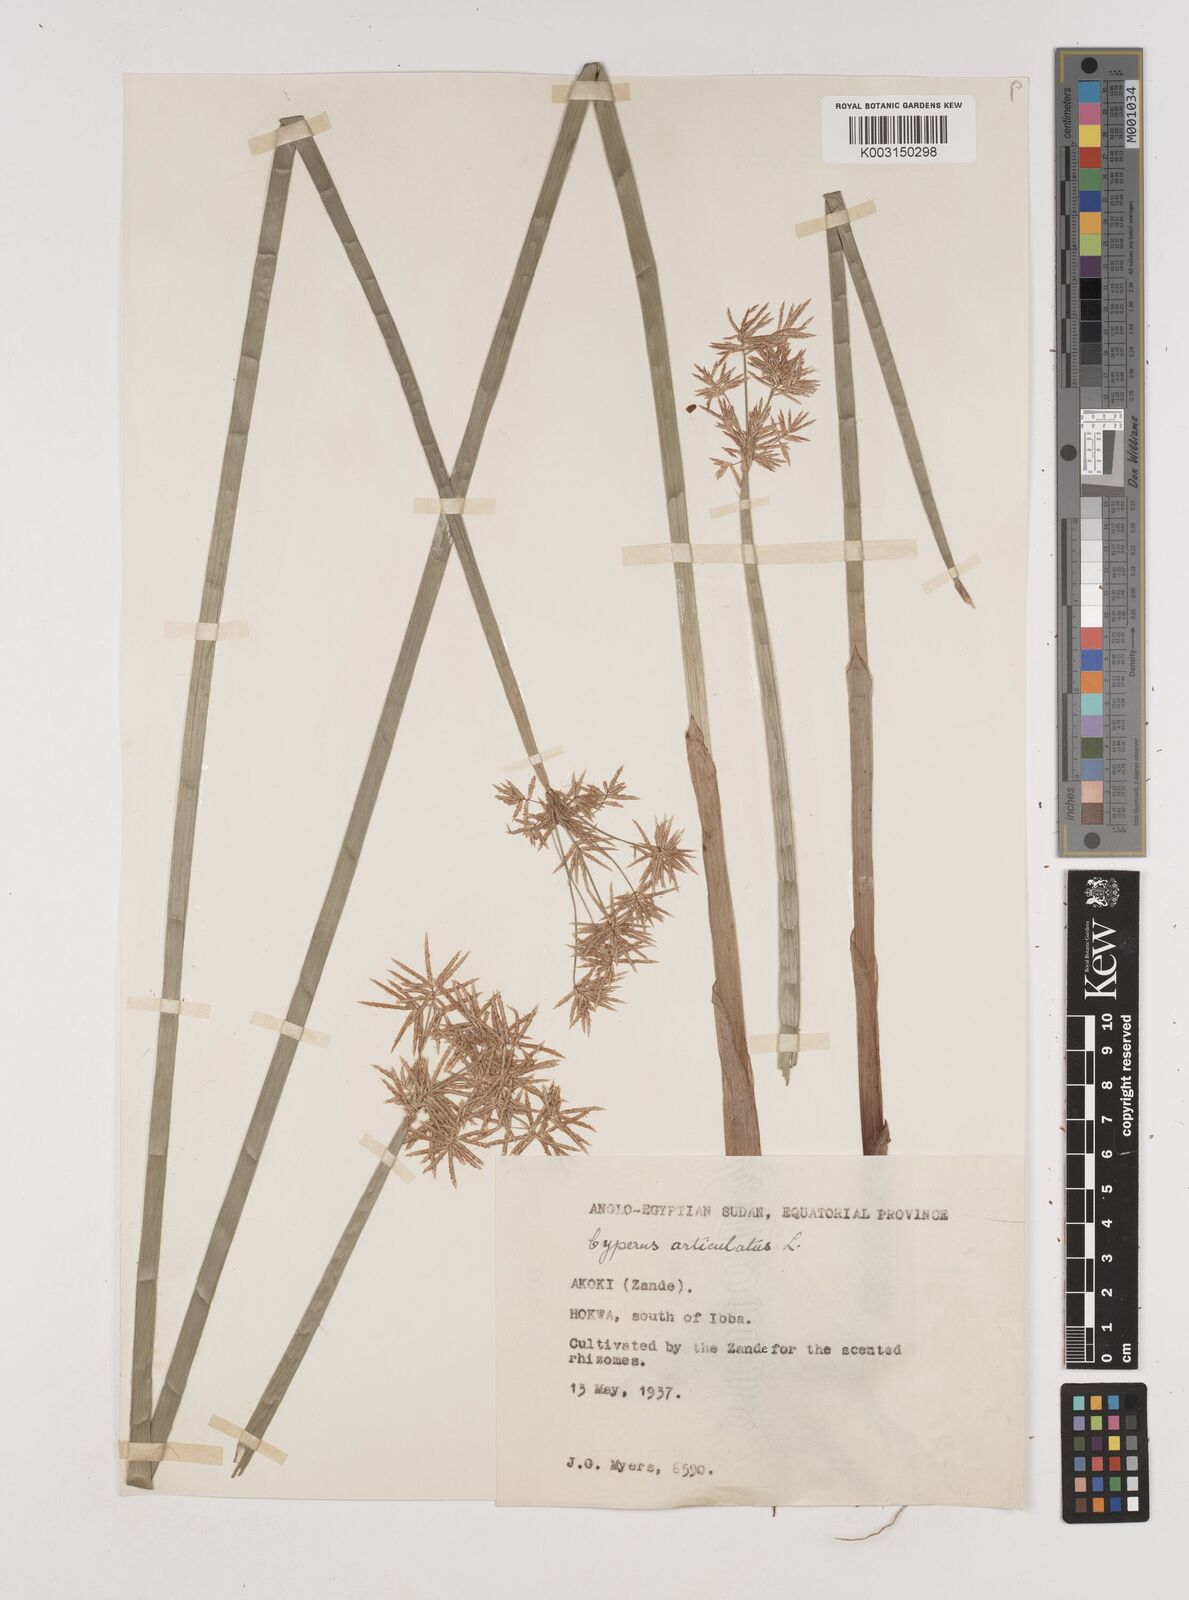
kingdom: Plantae
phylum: Tracheophyta
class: Liliopsida
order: Poales
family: Cyperaceae
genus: Cyperus
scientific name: Cyperus articulatus
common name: Jointed flatsedge
